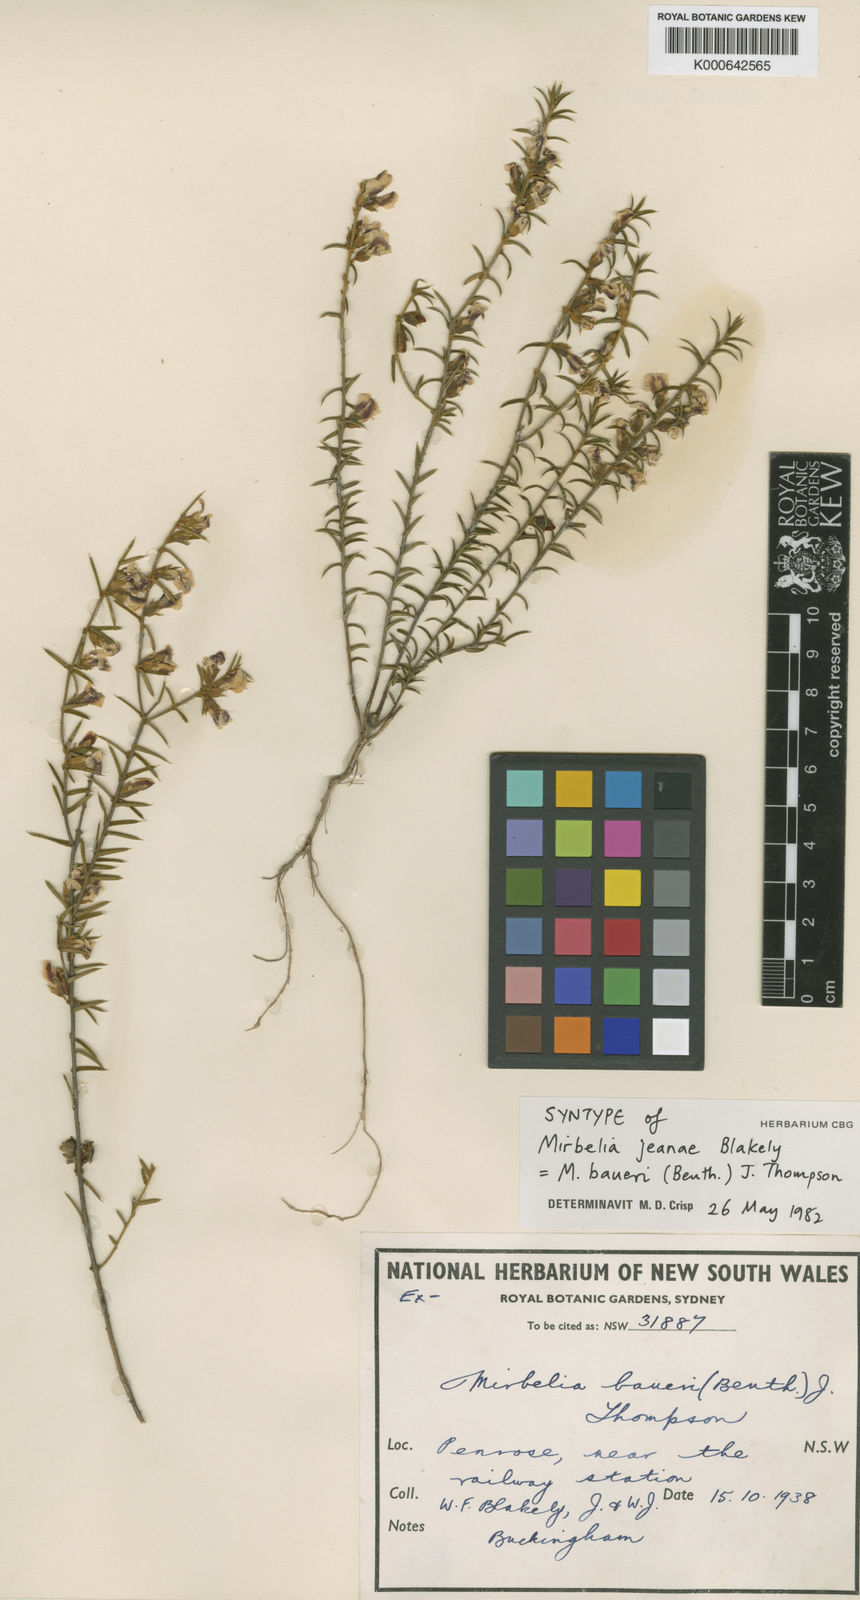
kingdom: Plantae
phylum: Tracheophyta
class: Magnoliopsida
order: Fabales
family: Fabaceae
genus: Mirbelia
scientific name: Mirbelia baueri
